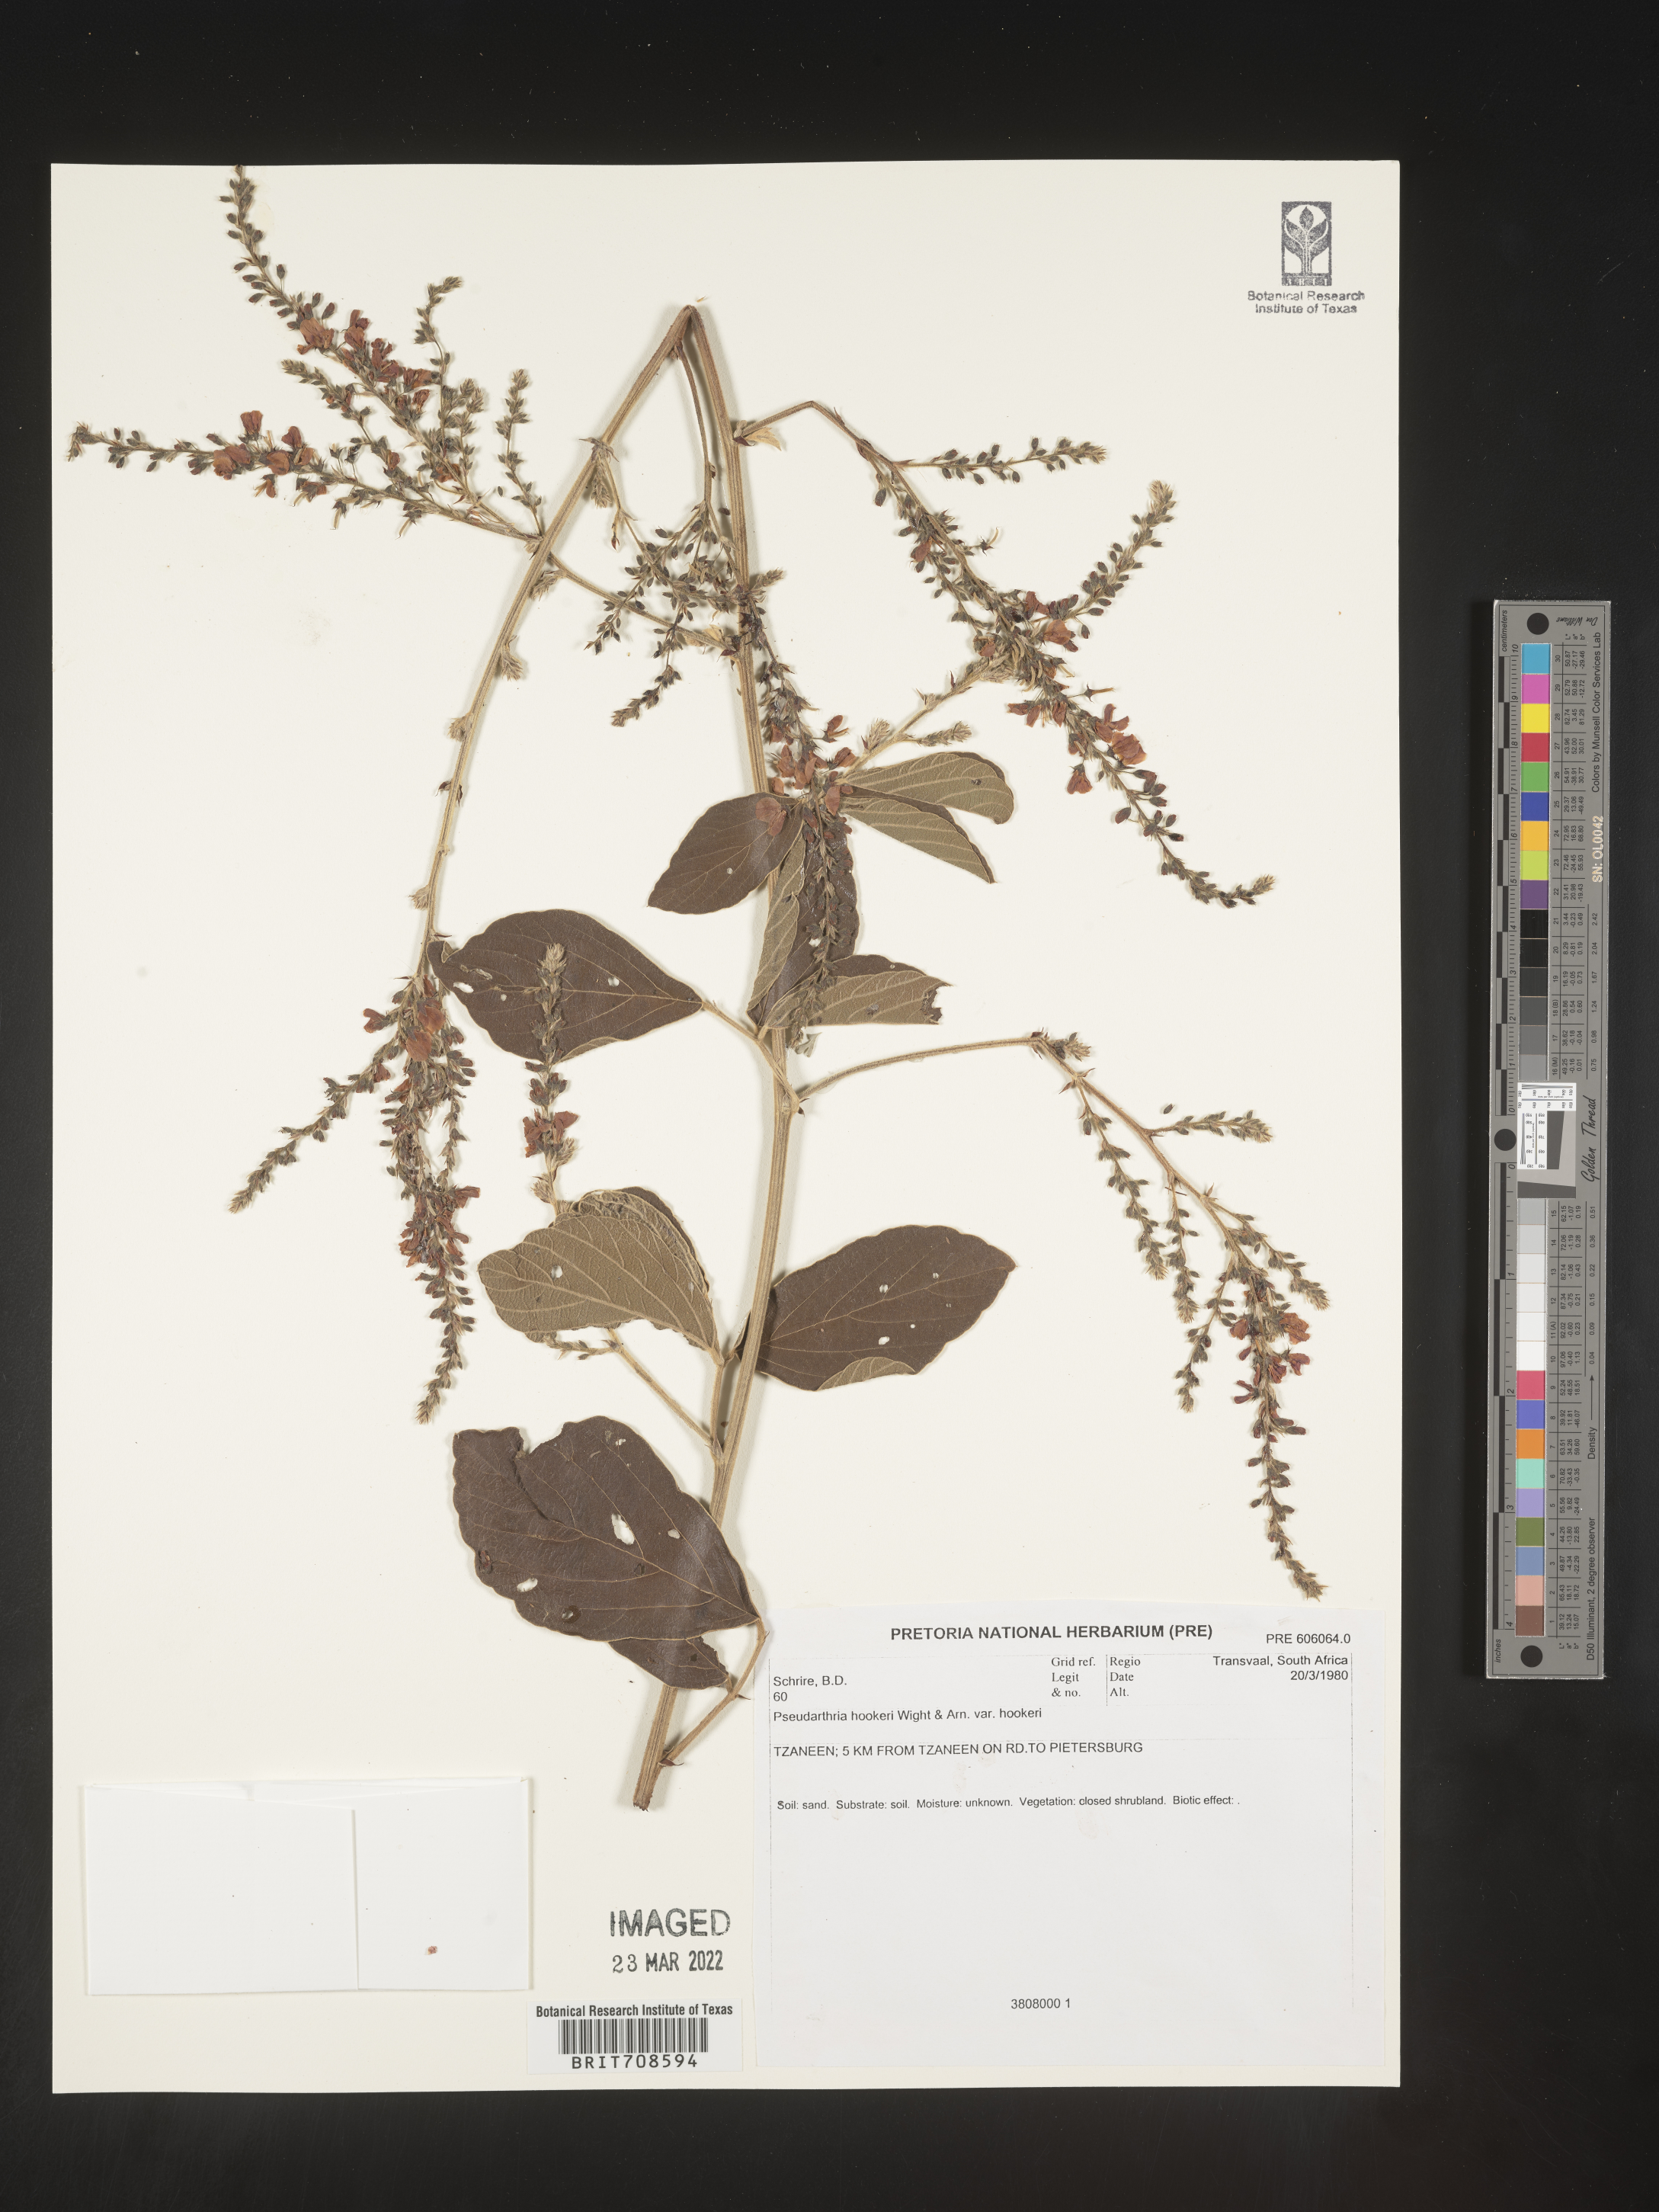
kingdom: Plantae
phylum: Tracheophyta
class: Magnoliopsida
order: Fabales
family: Fabaceae
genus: Pseudarthria
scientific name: Pseudarthria
